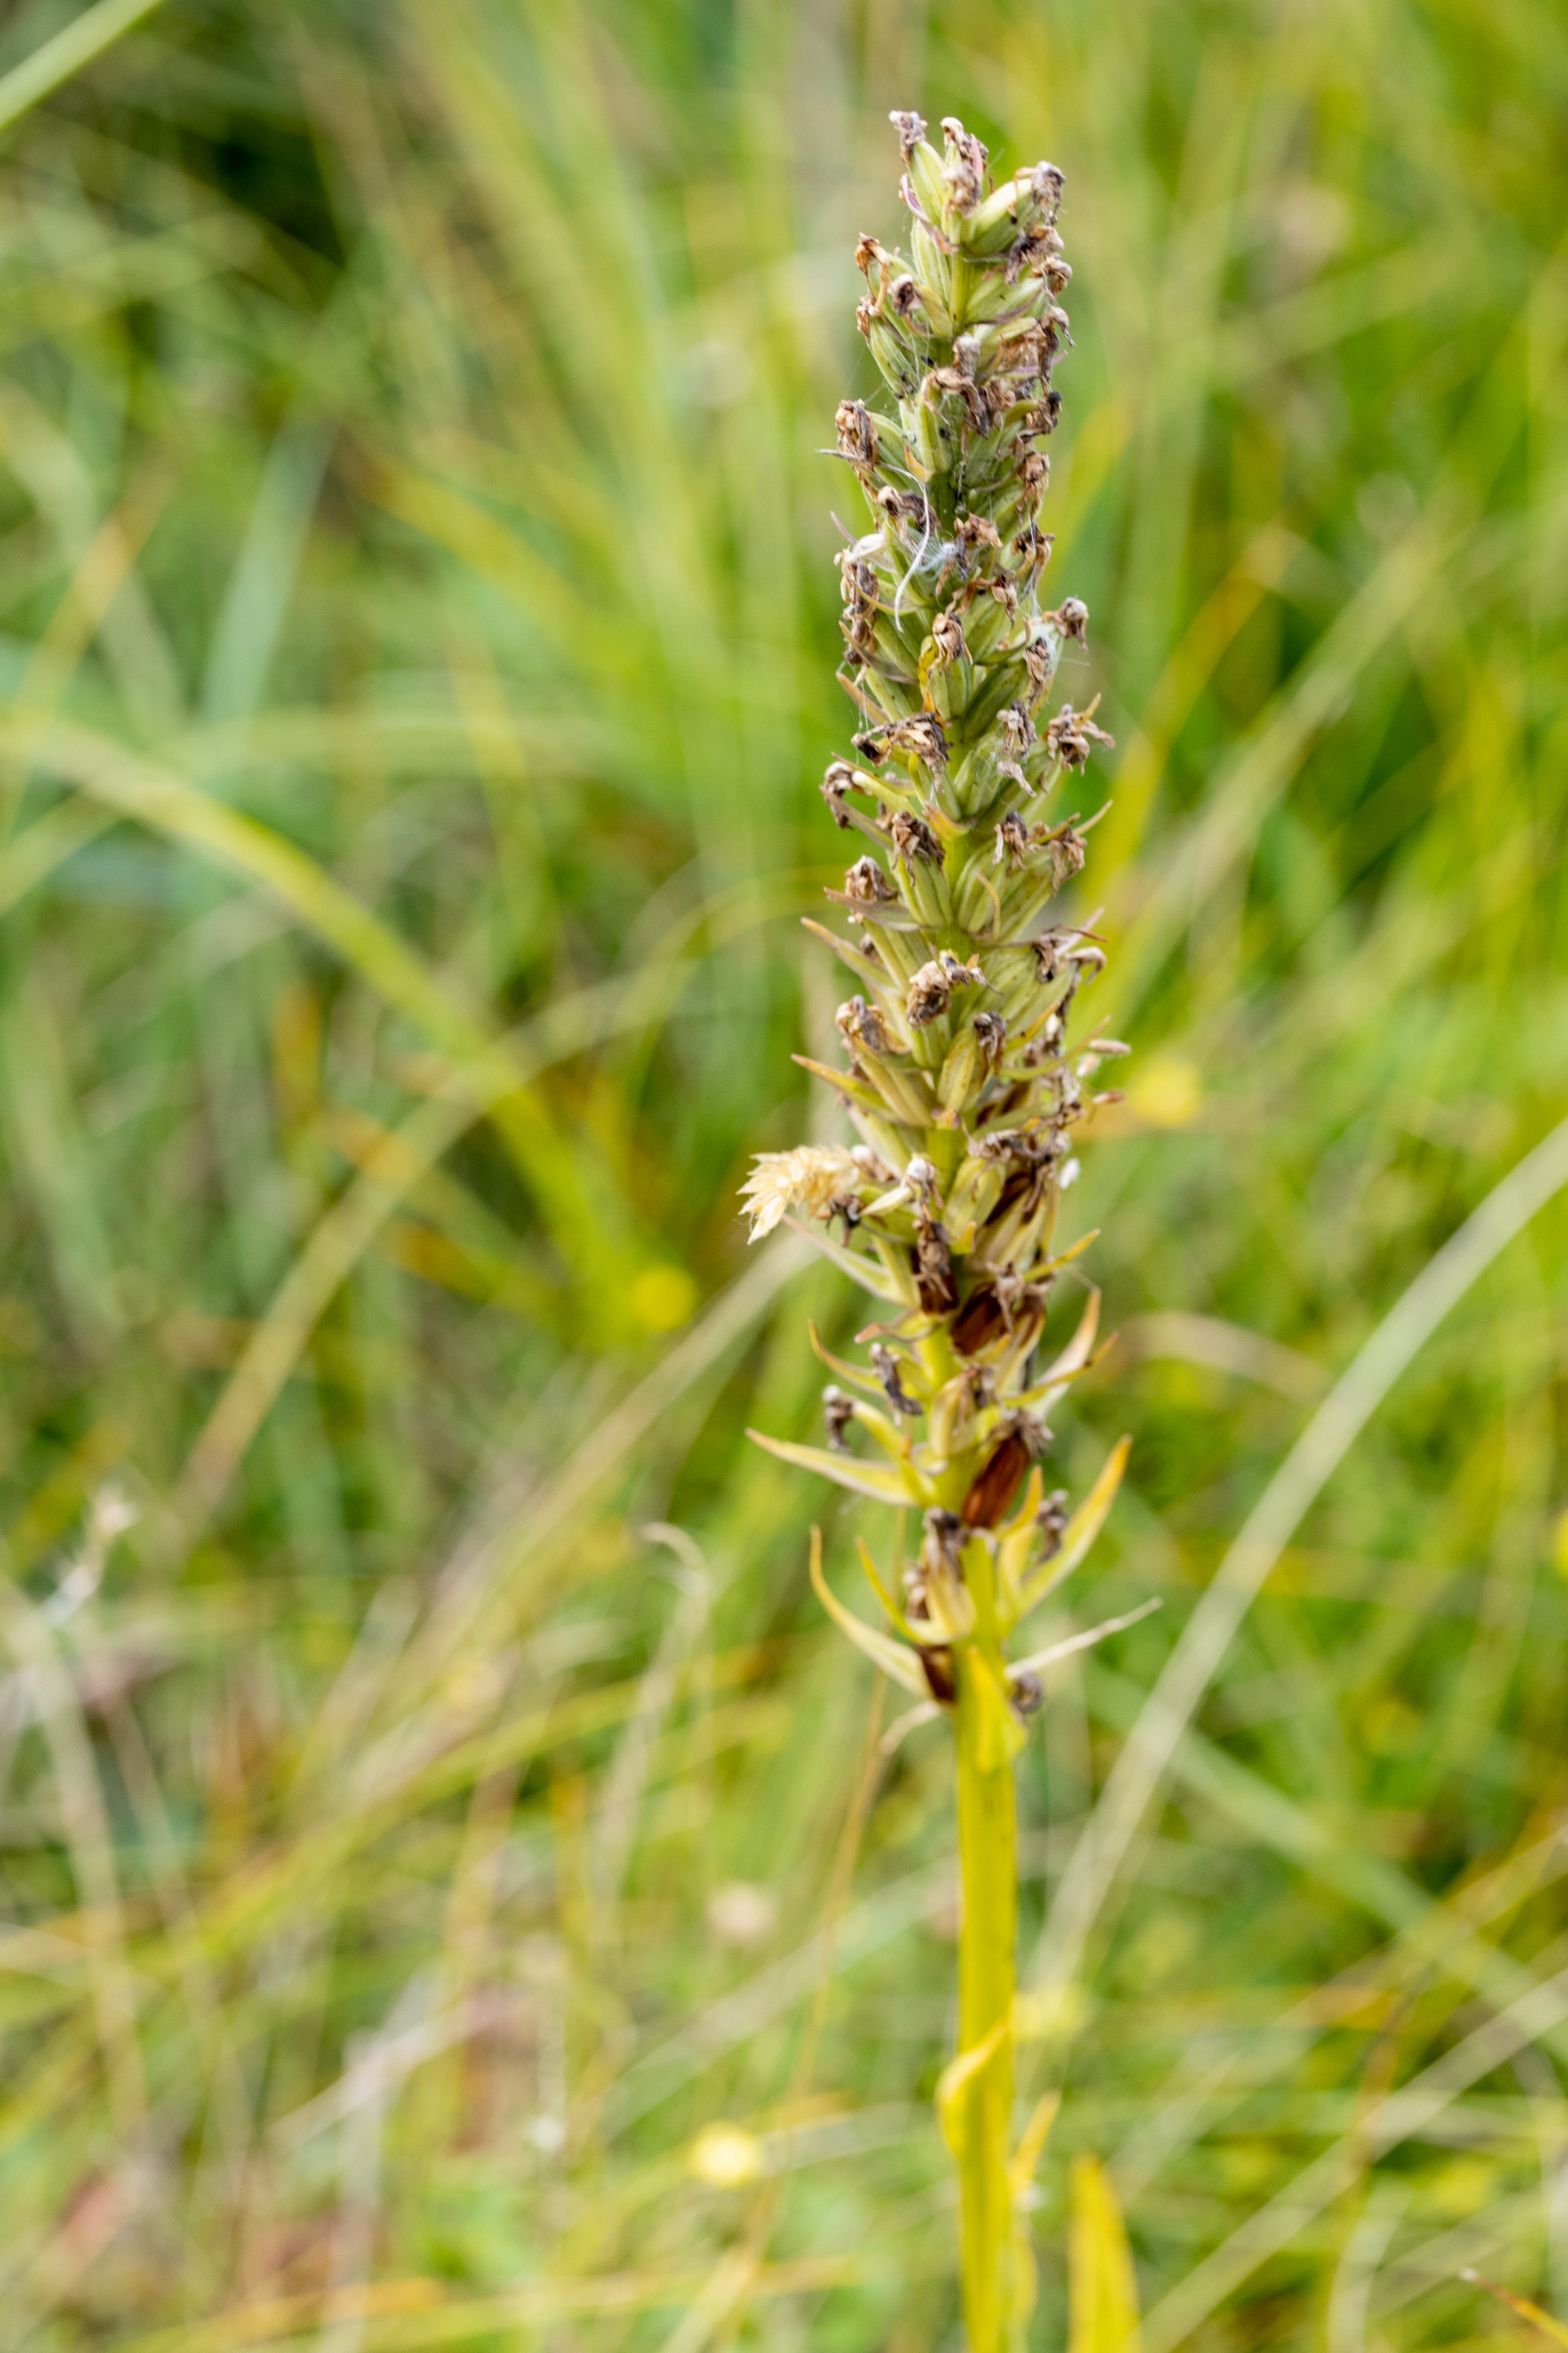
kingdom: Plantae
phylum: Tracheophyta
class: Liliopsida
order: Asparagales
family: Orchidaceae
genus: Dactylorhiza
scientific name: Dactylorhiza
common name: Gøgeurt (Dactylorhiza-slægten)
